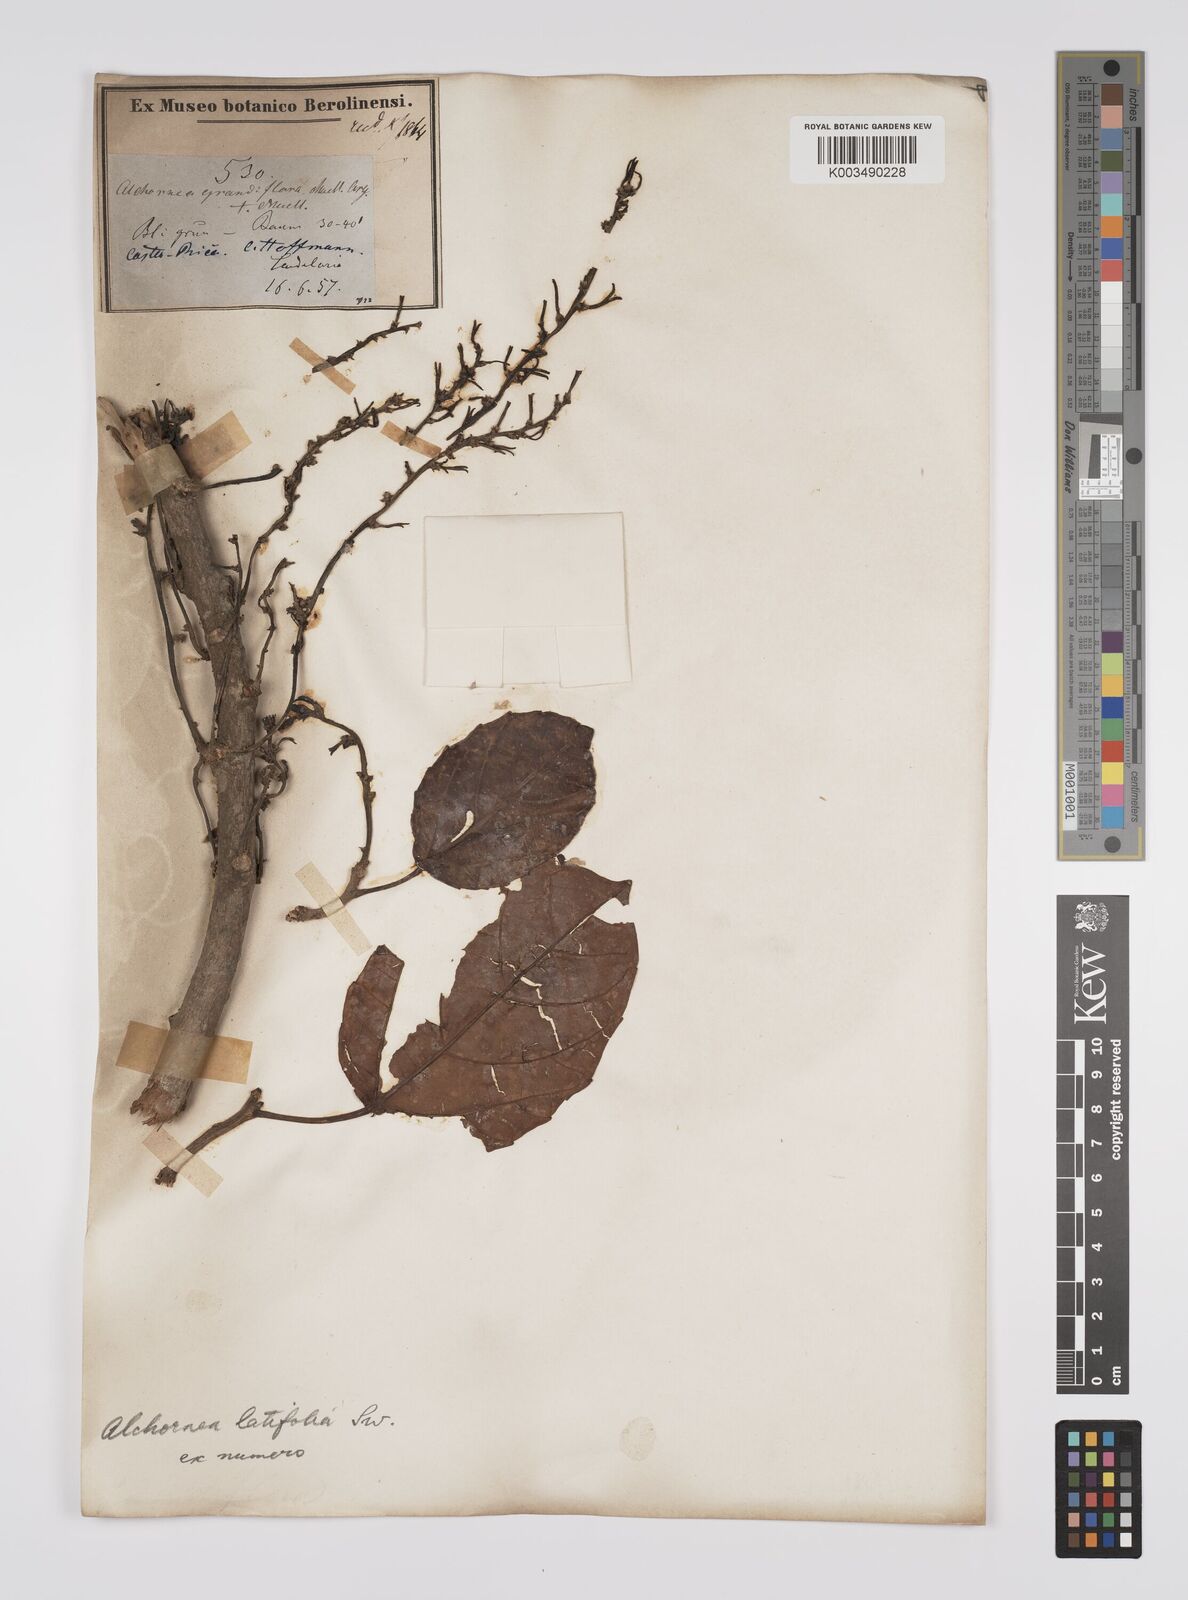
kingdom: Plantae
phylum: Tracheophyta
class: Magnoliopsida
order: Malpighiales
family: Euphorbiaceae
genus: Alchornea
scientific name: Alchornea latifolia
